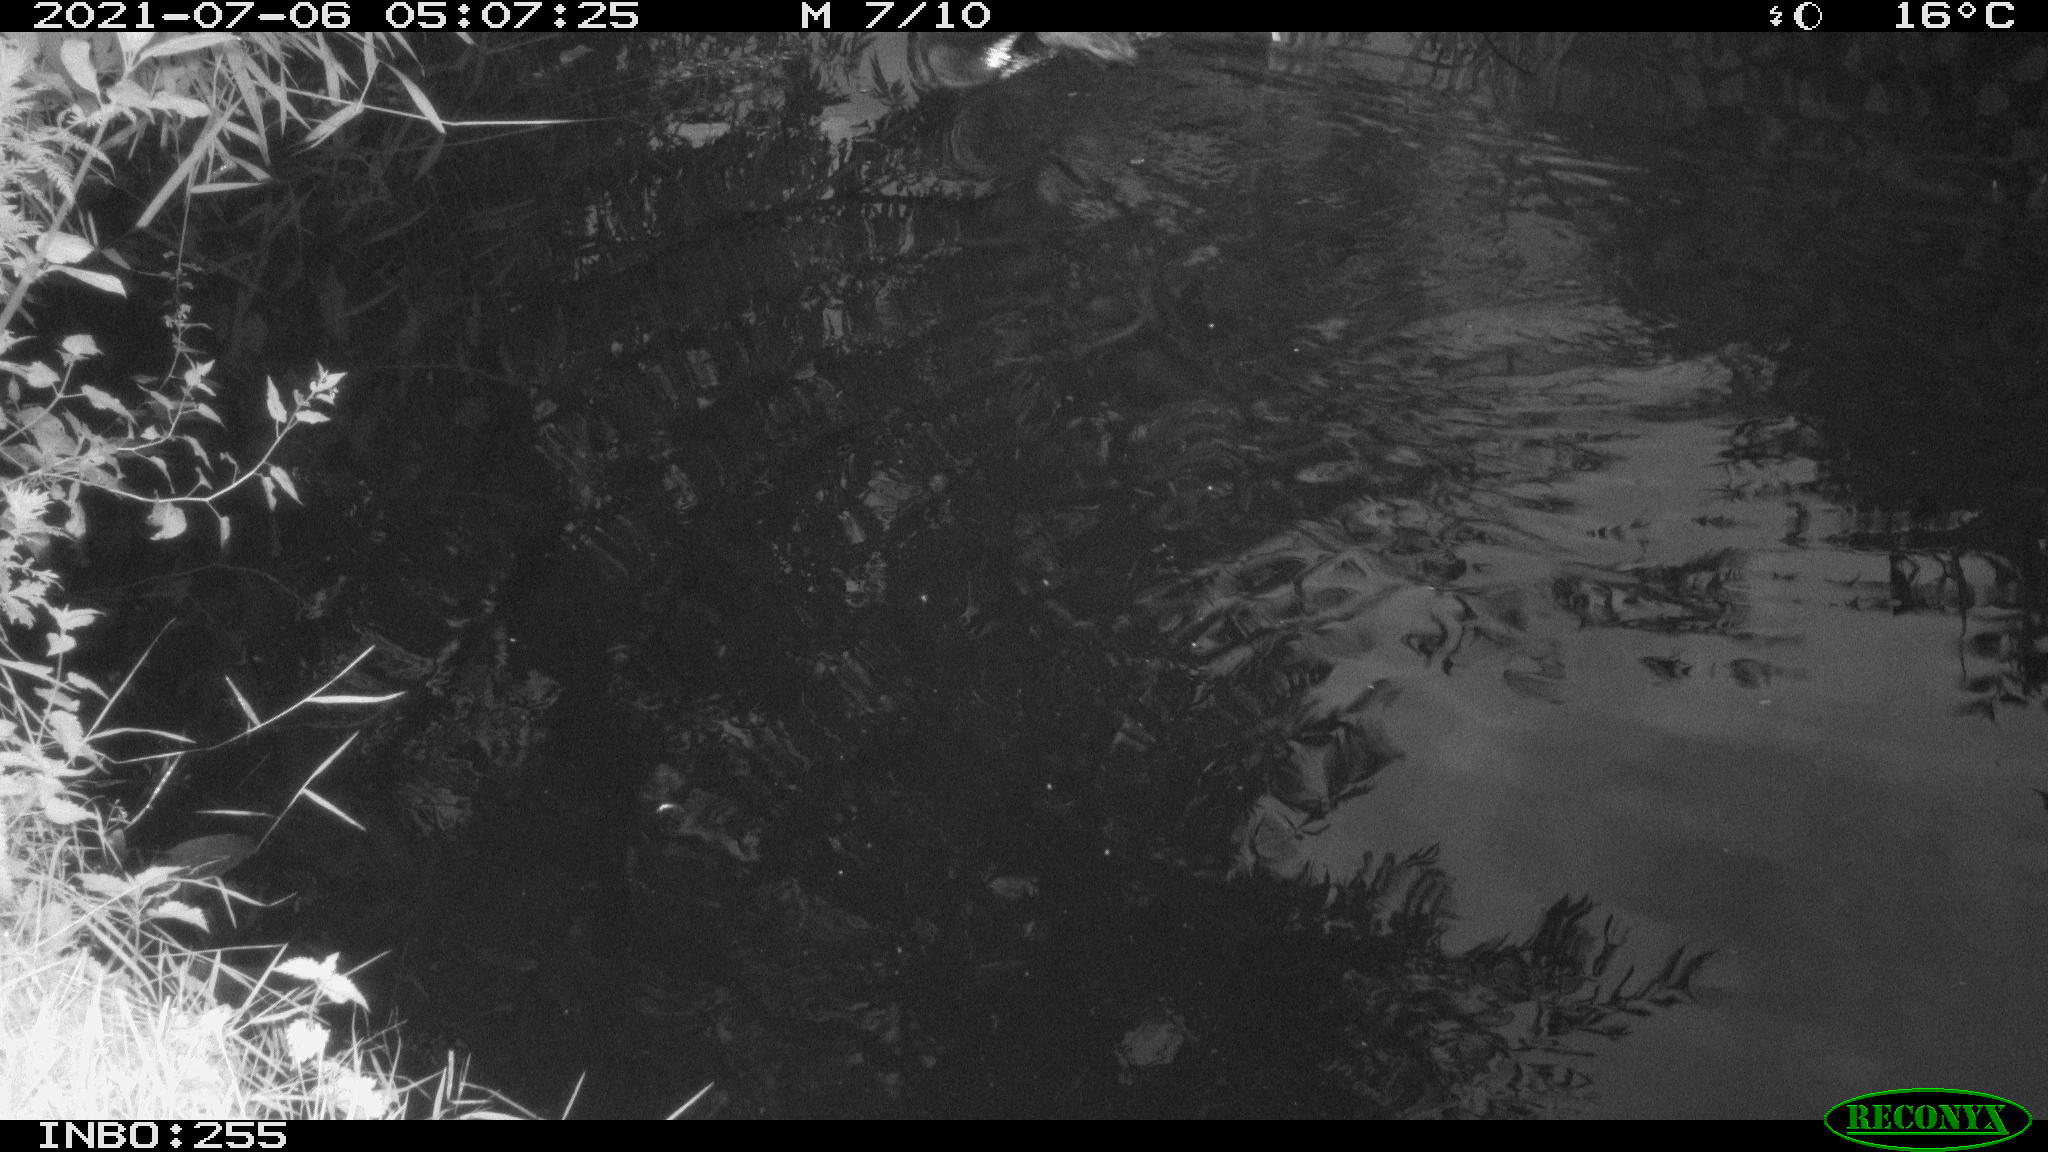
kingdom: Animalia
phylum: Chordata
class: Aves
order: Anseriformes
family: Anatidae
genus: Anas
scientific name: Anas platyrhynchos
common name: Mallard
